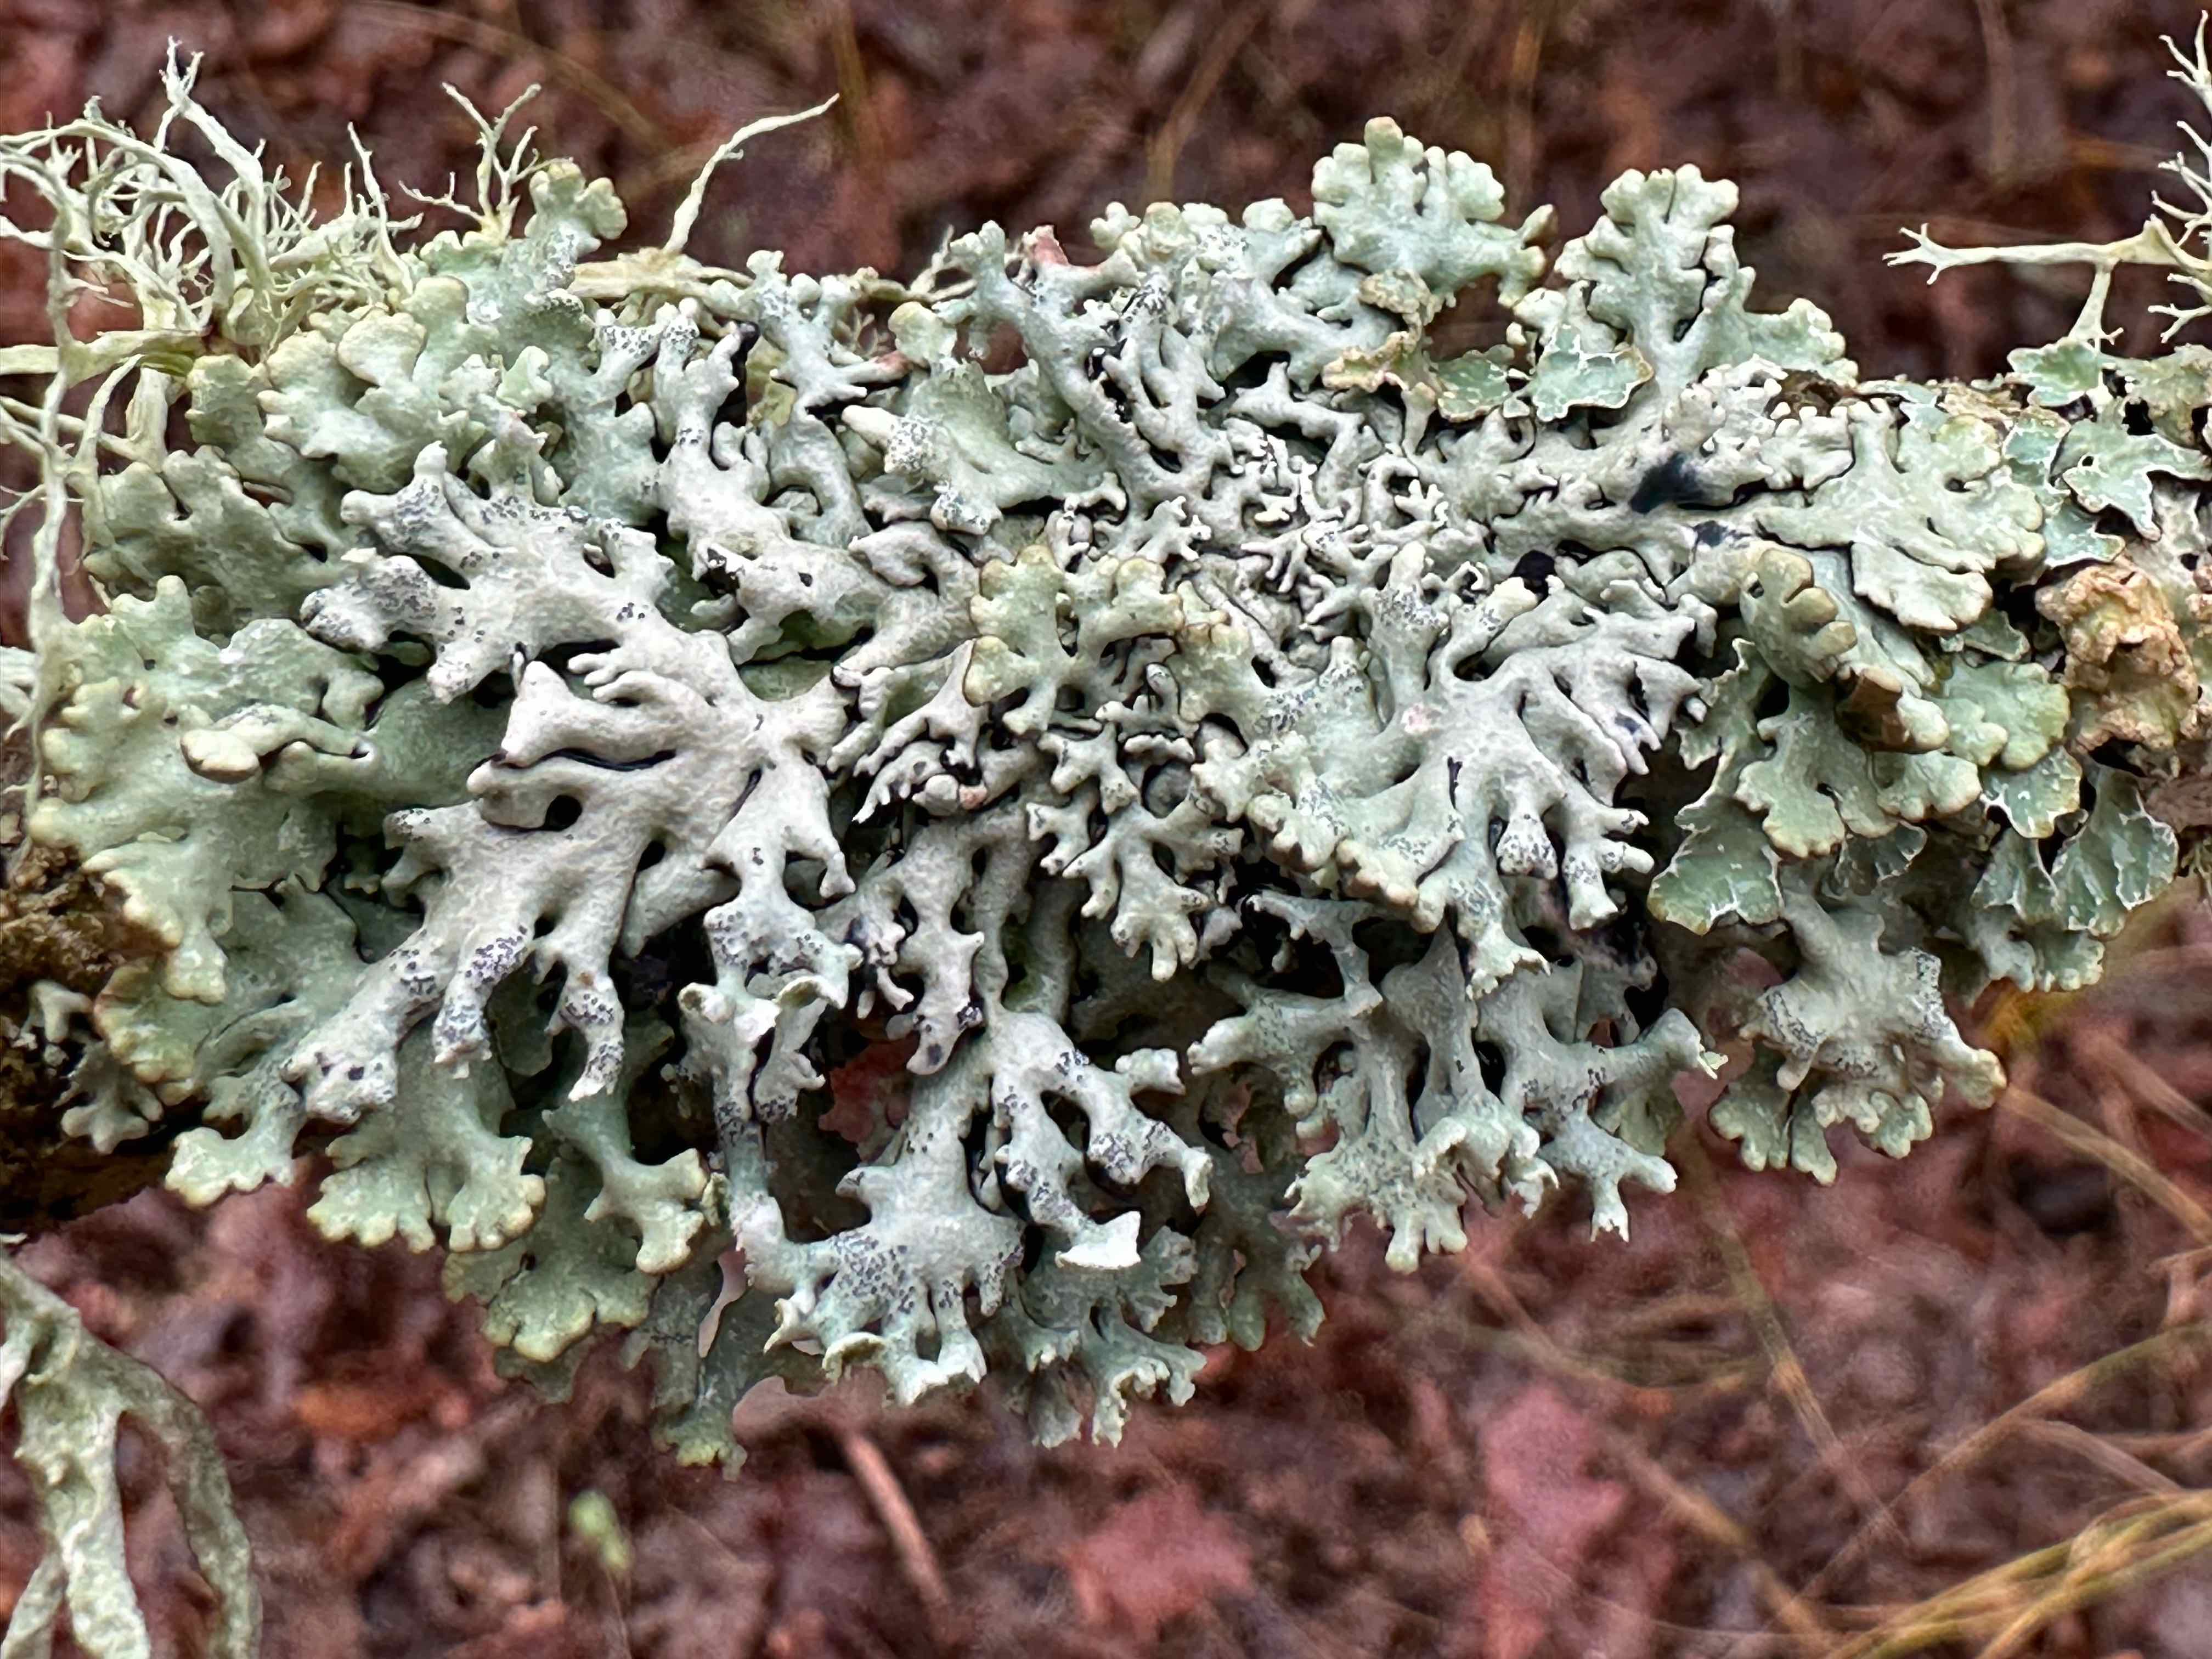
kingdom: Fungi
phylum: Ascomycota
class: Lecanoromycetes
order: Lecanorales
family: Parmeliaceae
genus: Hypogymnia
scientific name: Hypogymnia physodes
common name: almindelig kvistlav
